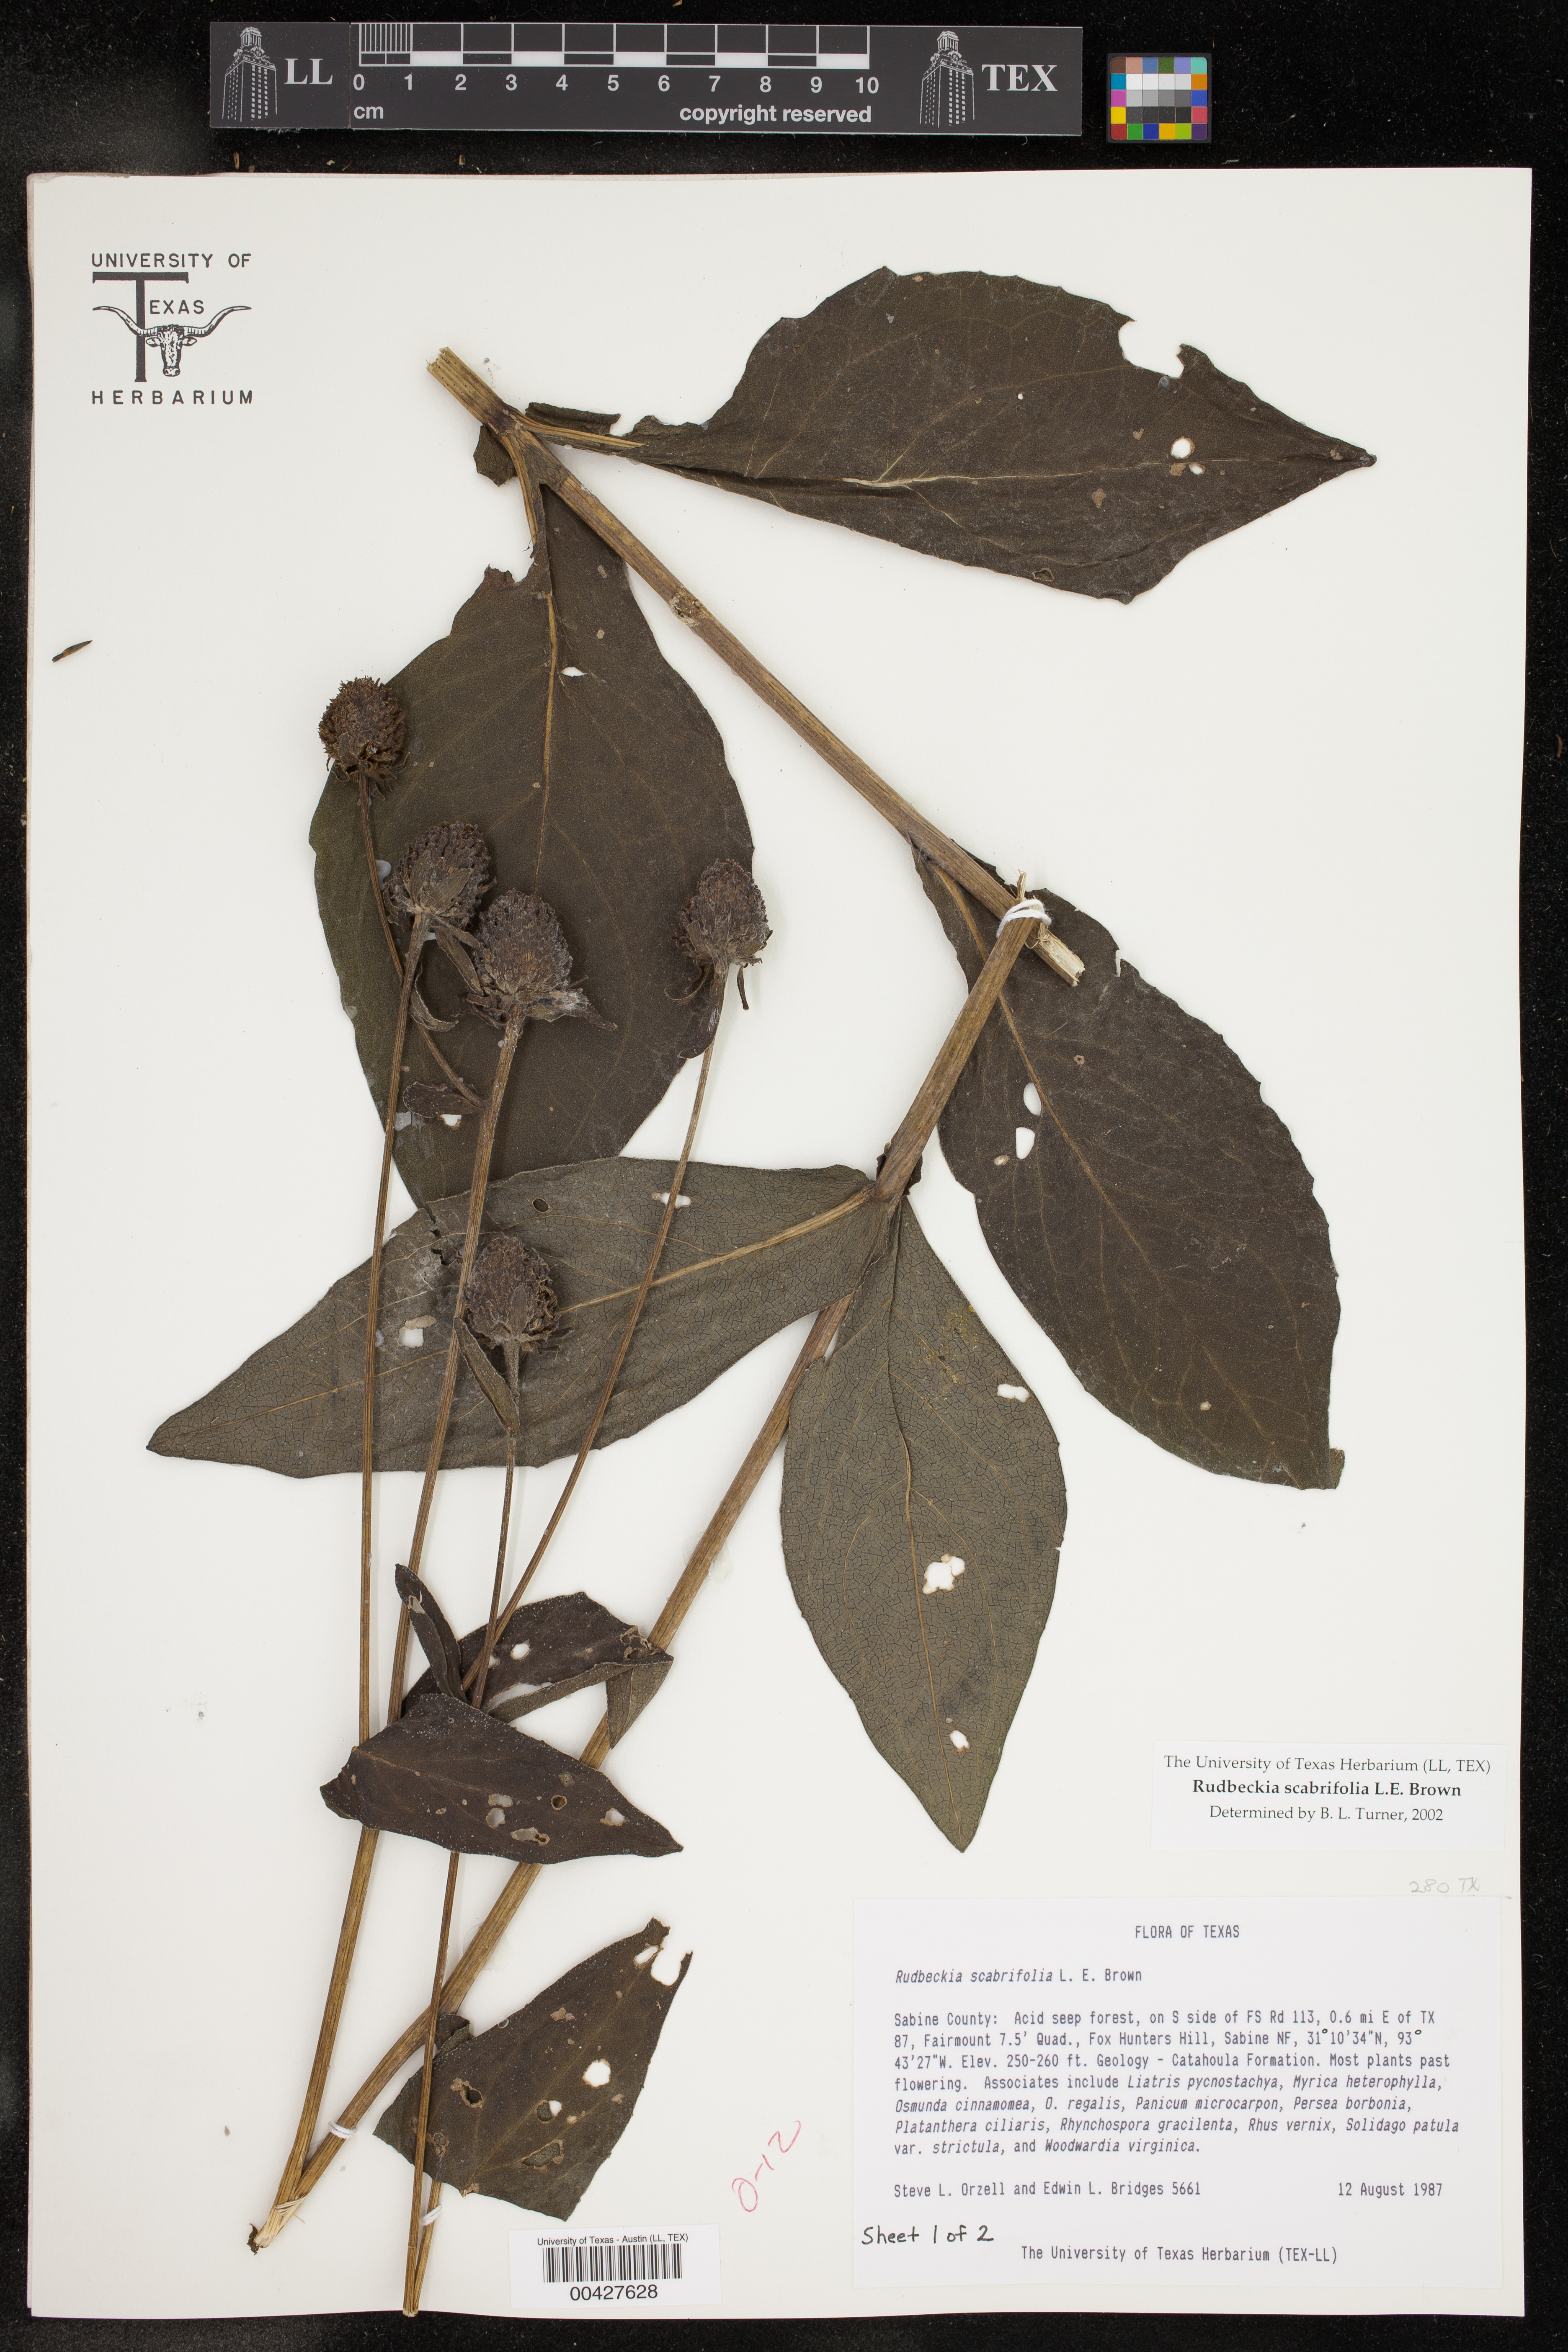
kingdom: Plantae
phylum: Tracheophyta
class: Magnoliopsida
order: Asterales
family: Asteraceae
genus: Rudbeckia
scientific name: Rudbeckia scabrifolia
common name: Rough-leaf coneflower
